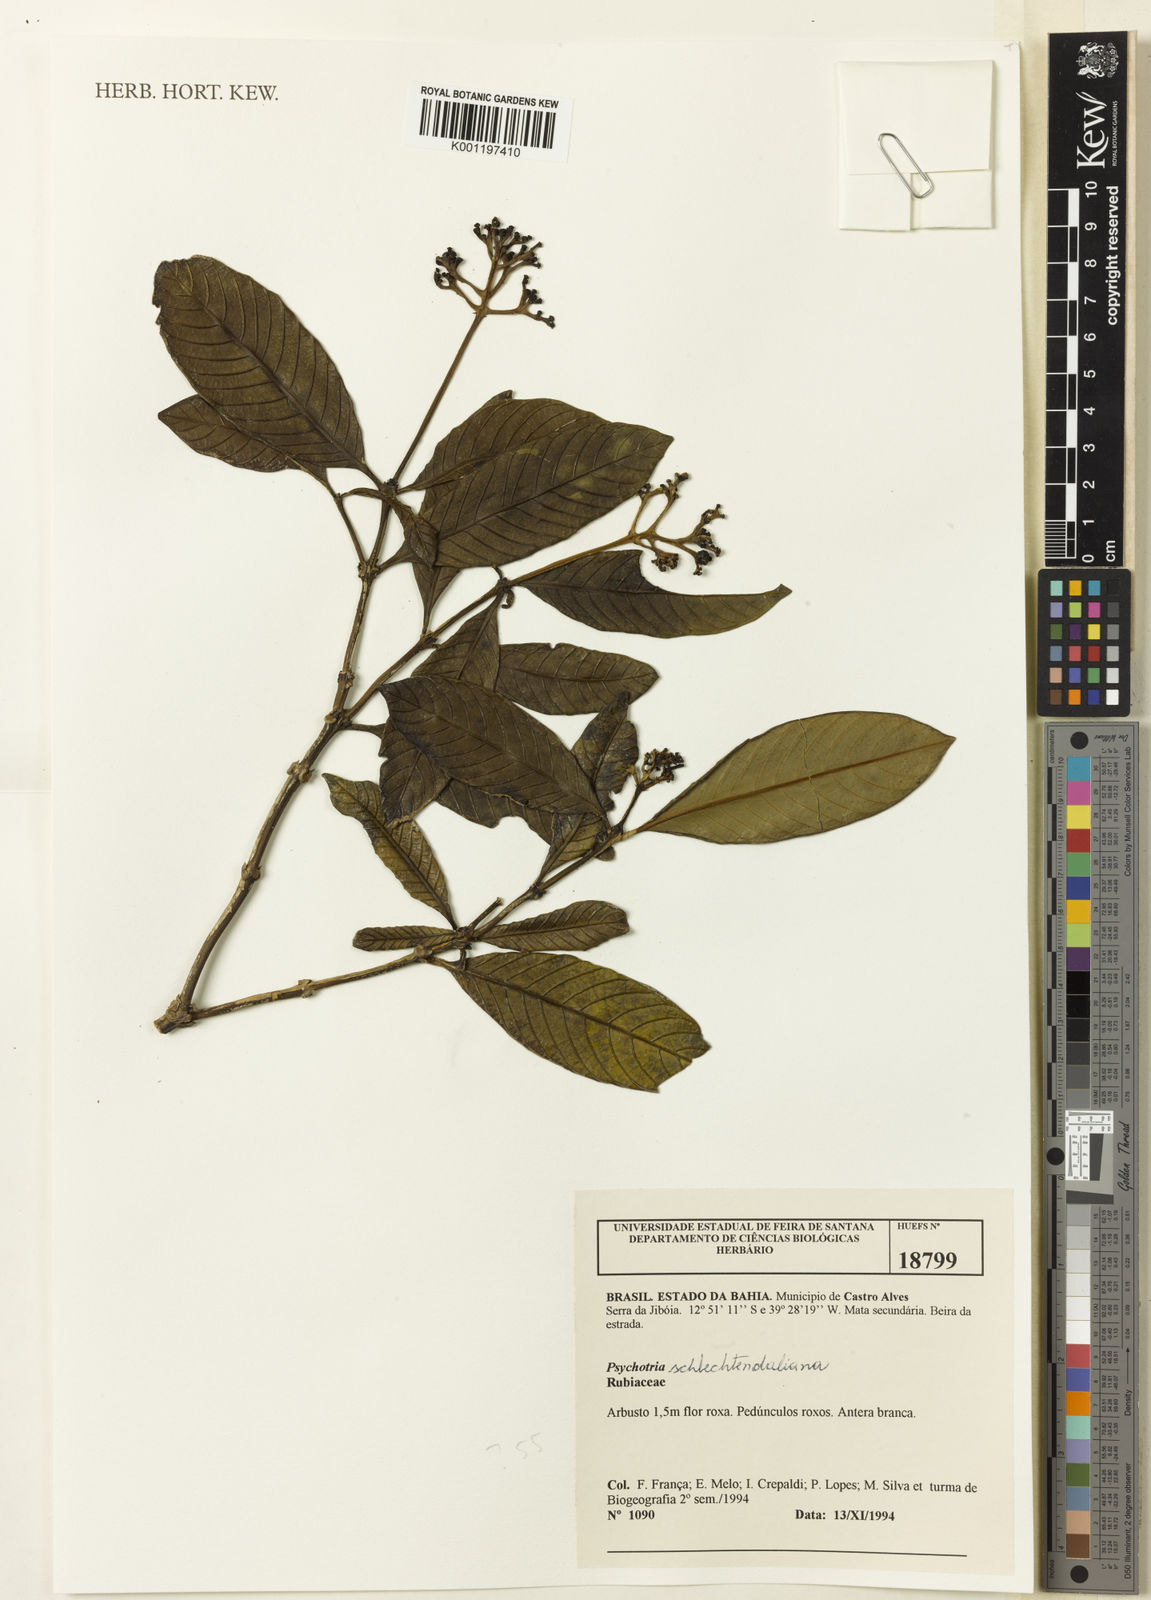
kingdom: Plantae
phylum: Tracheophyta
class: Magnoliopsida
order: Gentianales
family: Rubiaceae
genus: Psychotria
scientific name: Psychotria
